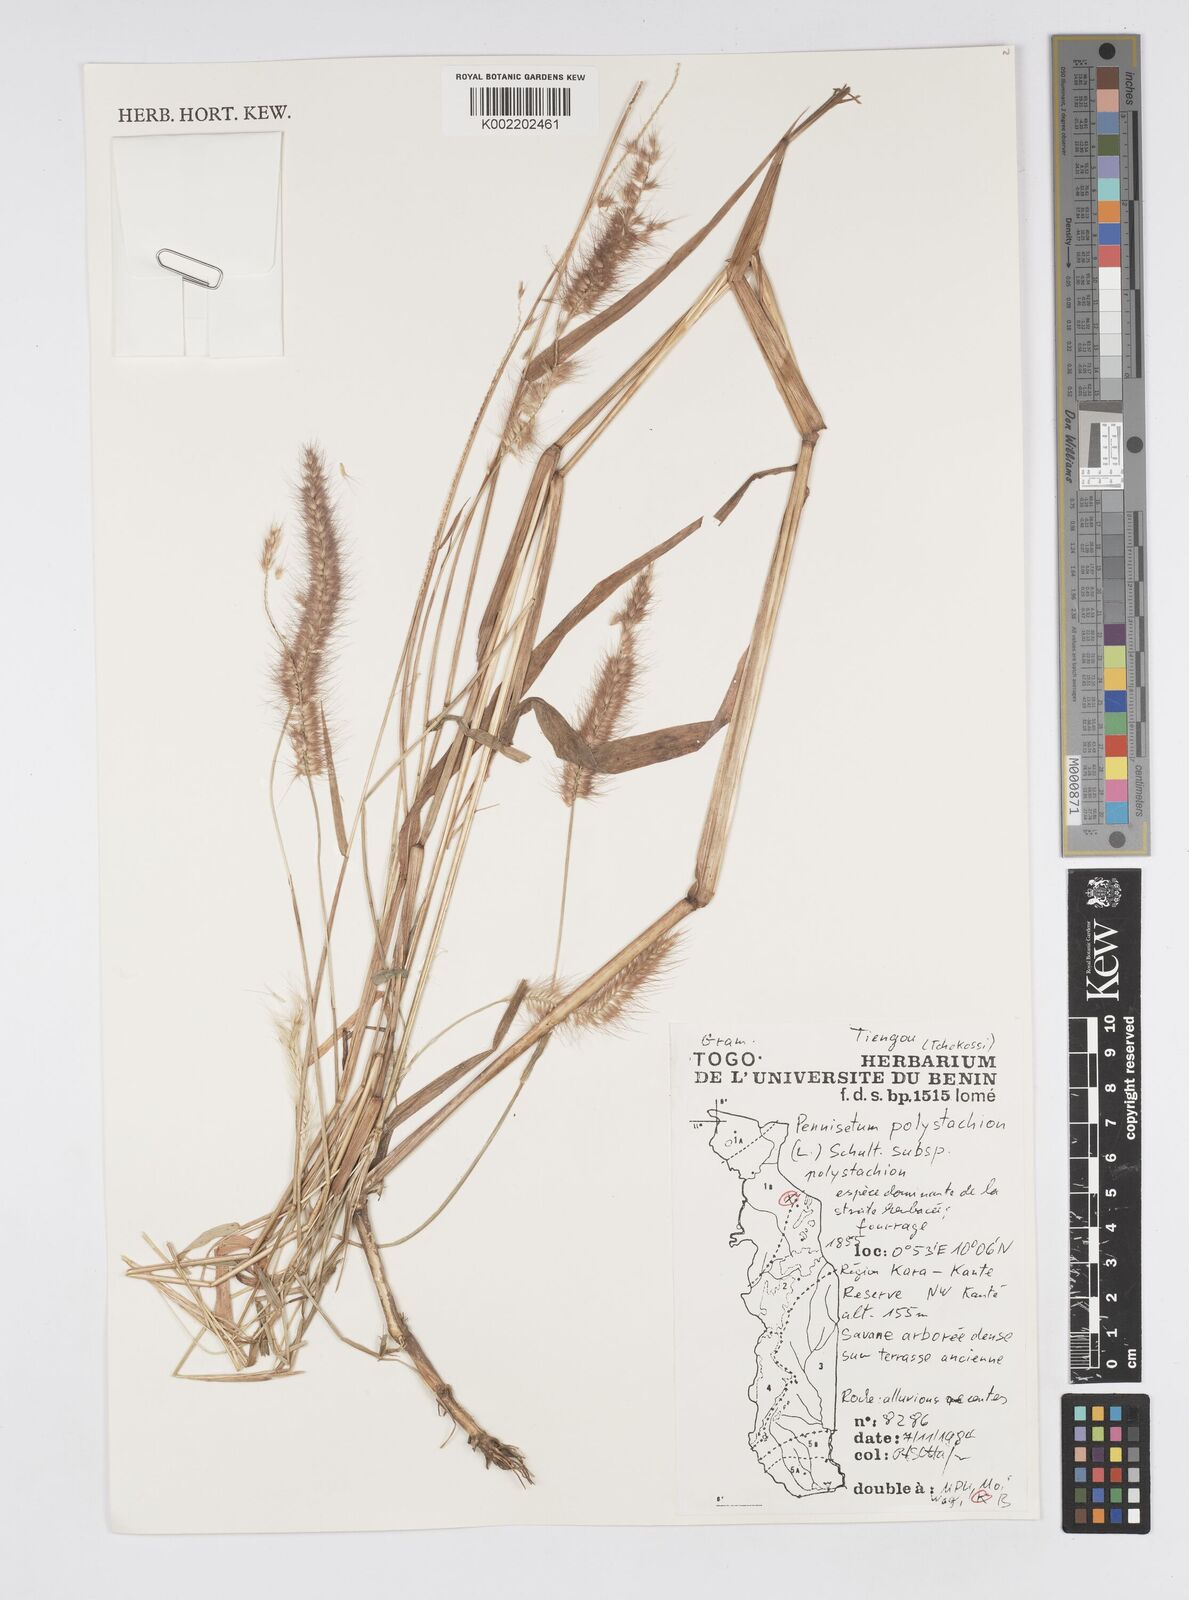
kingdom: Plantae
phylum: Tracheophyta
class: Liliopsida
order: Poales
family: Poaceae
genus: Setaria
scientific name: Setaria parviflora
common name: Knotroot bristle-grass
